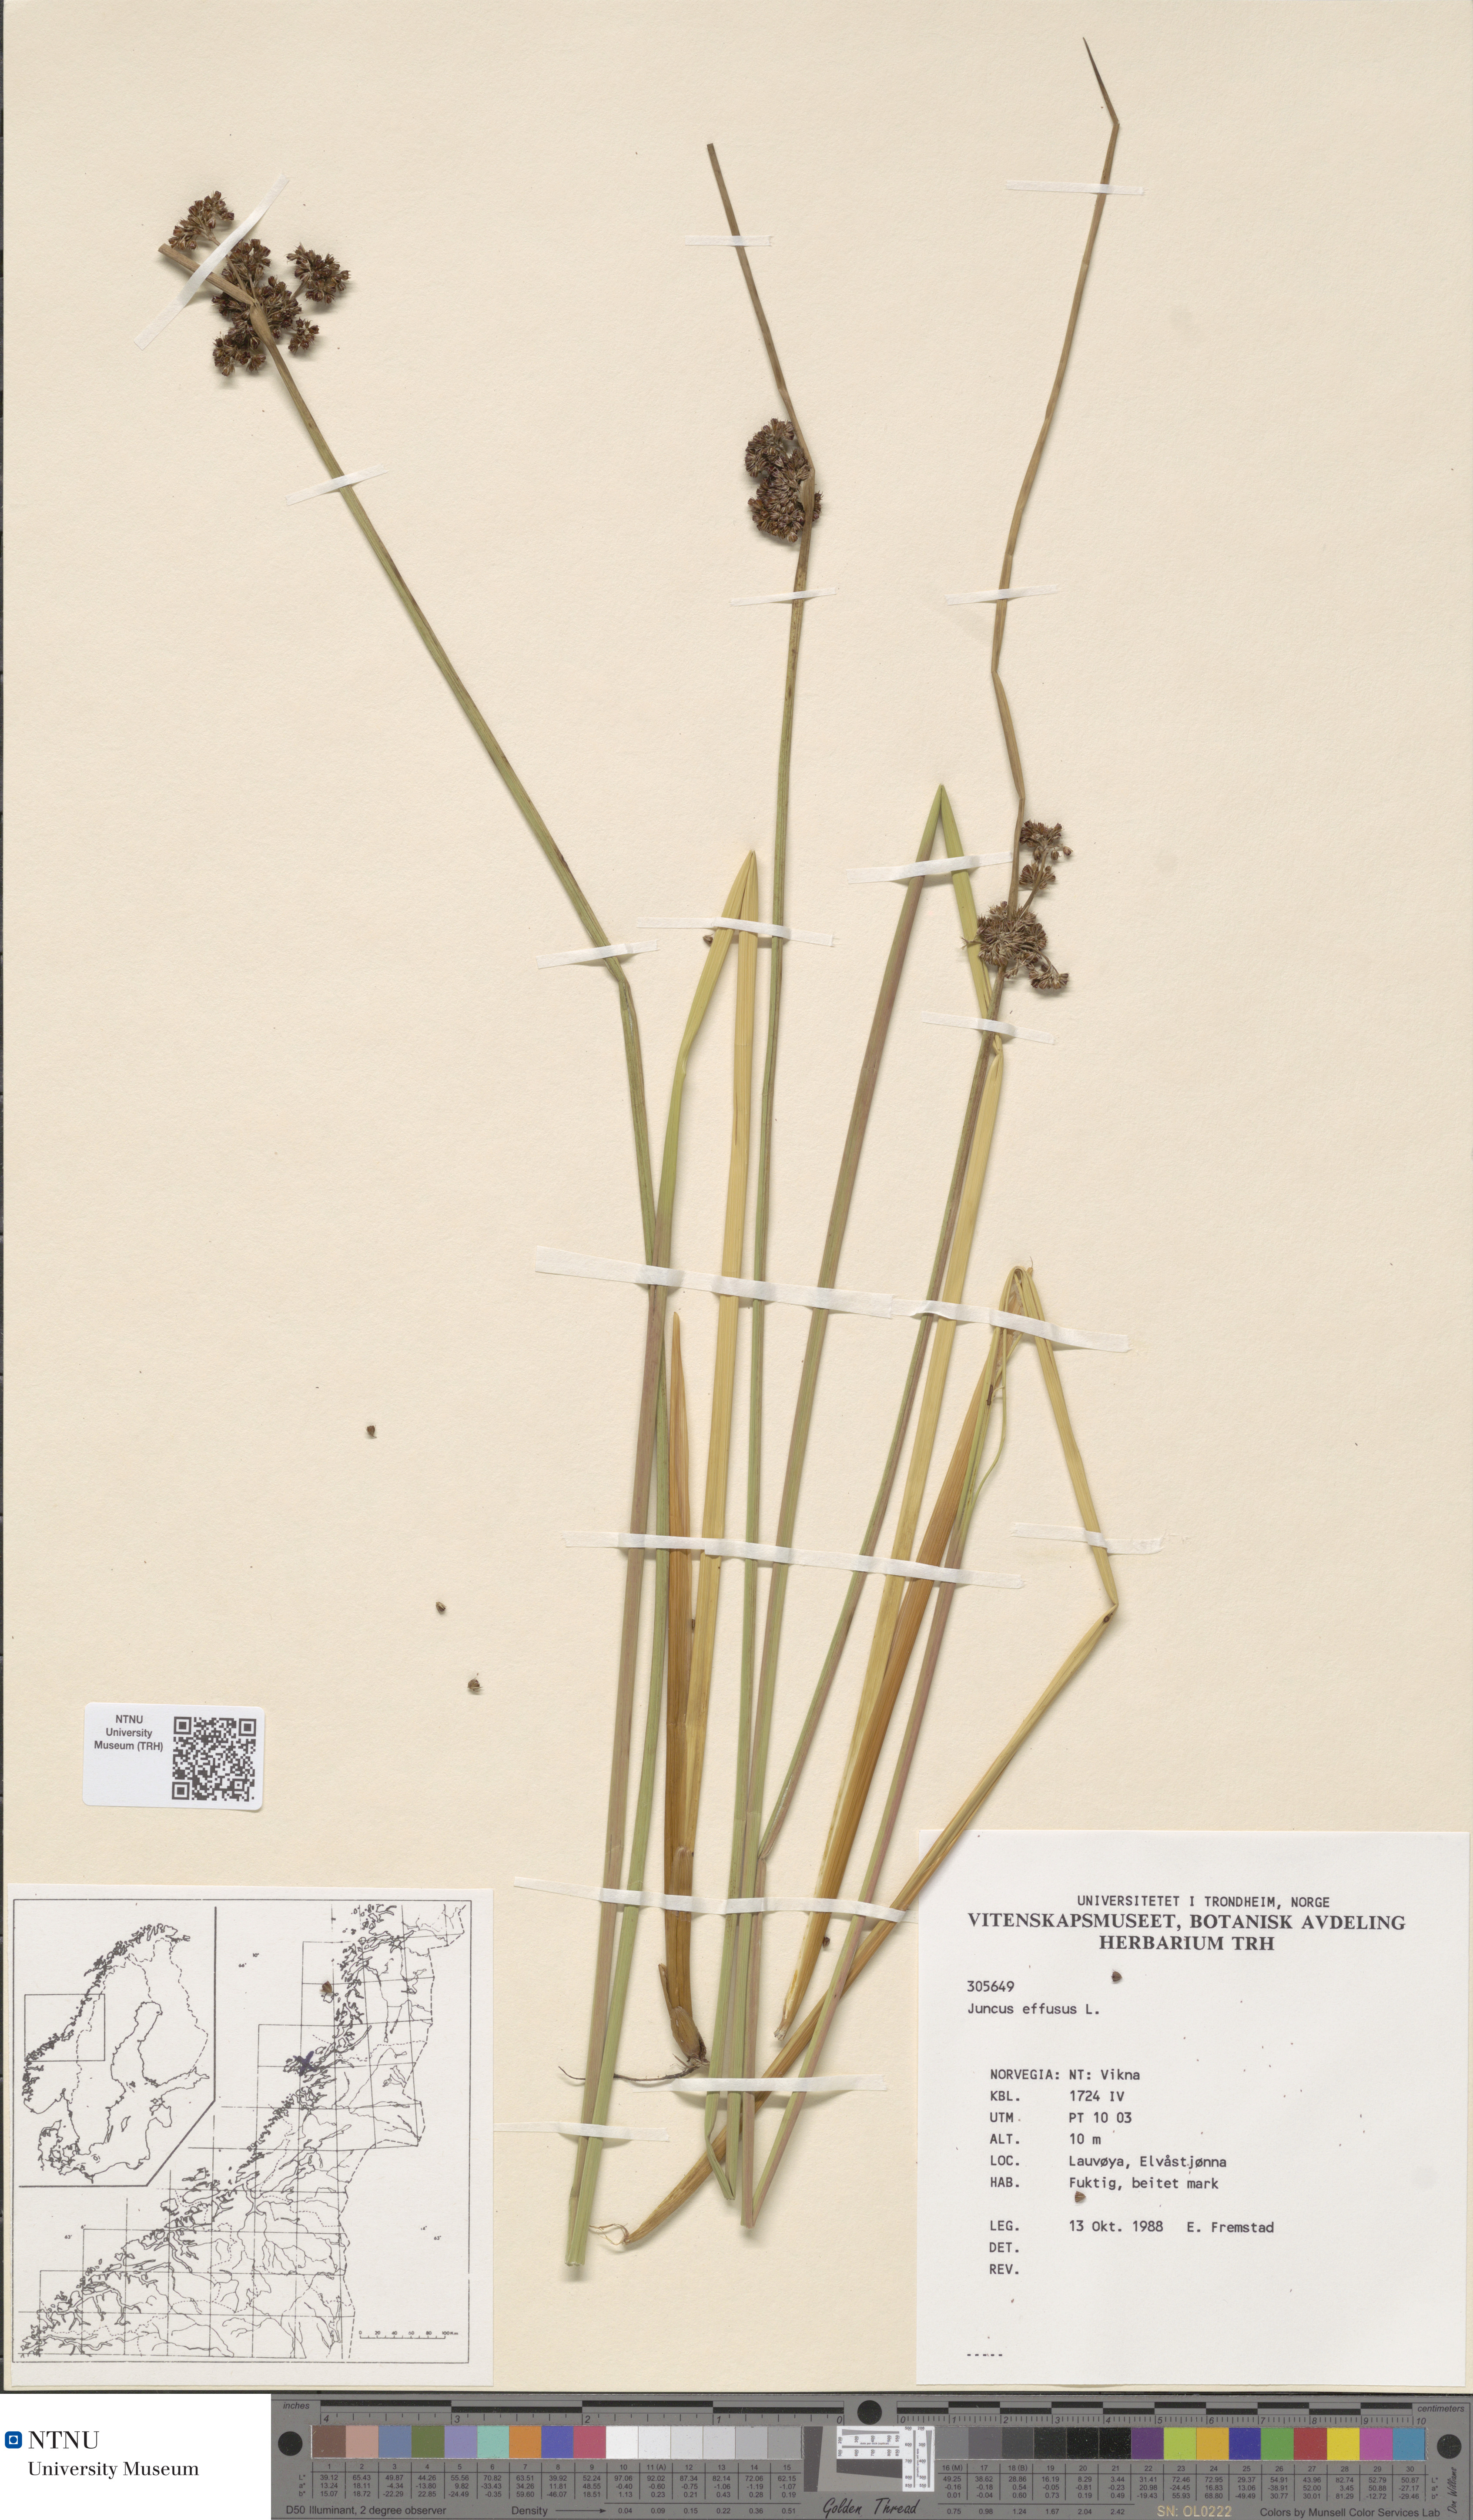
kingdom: Plantae
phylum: Tracheophyta
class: Liliopsida
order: Poales
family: Juncaceae
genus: Juncus
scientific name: Juncus effusus
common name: Soft rush
